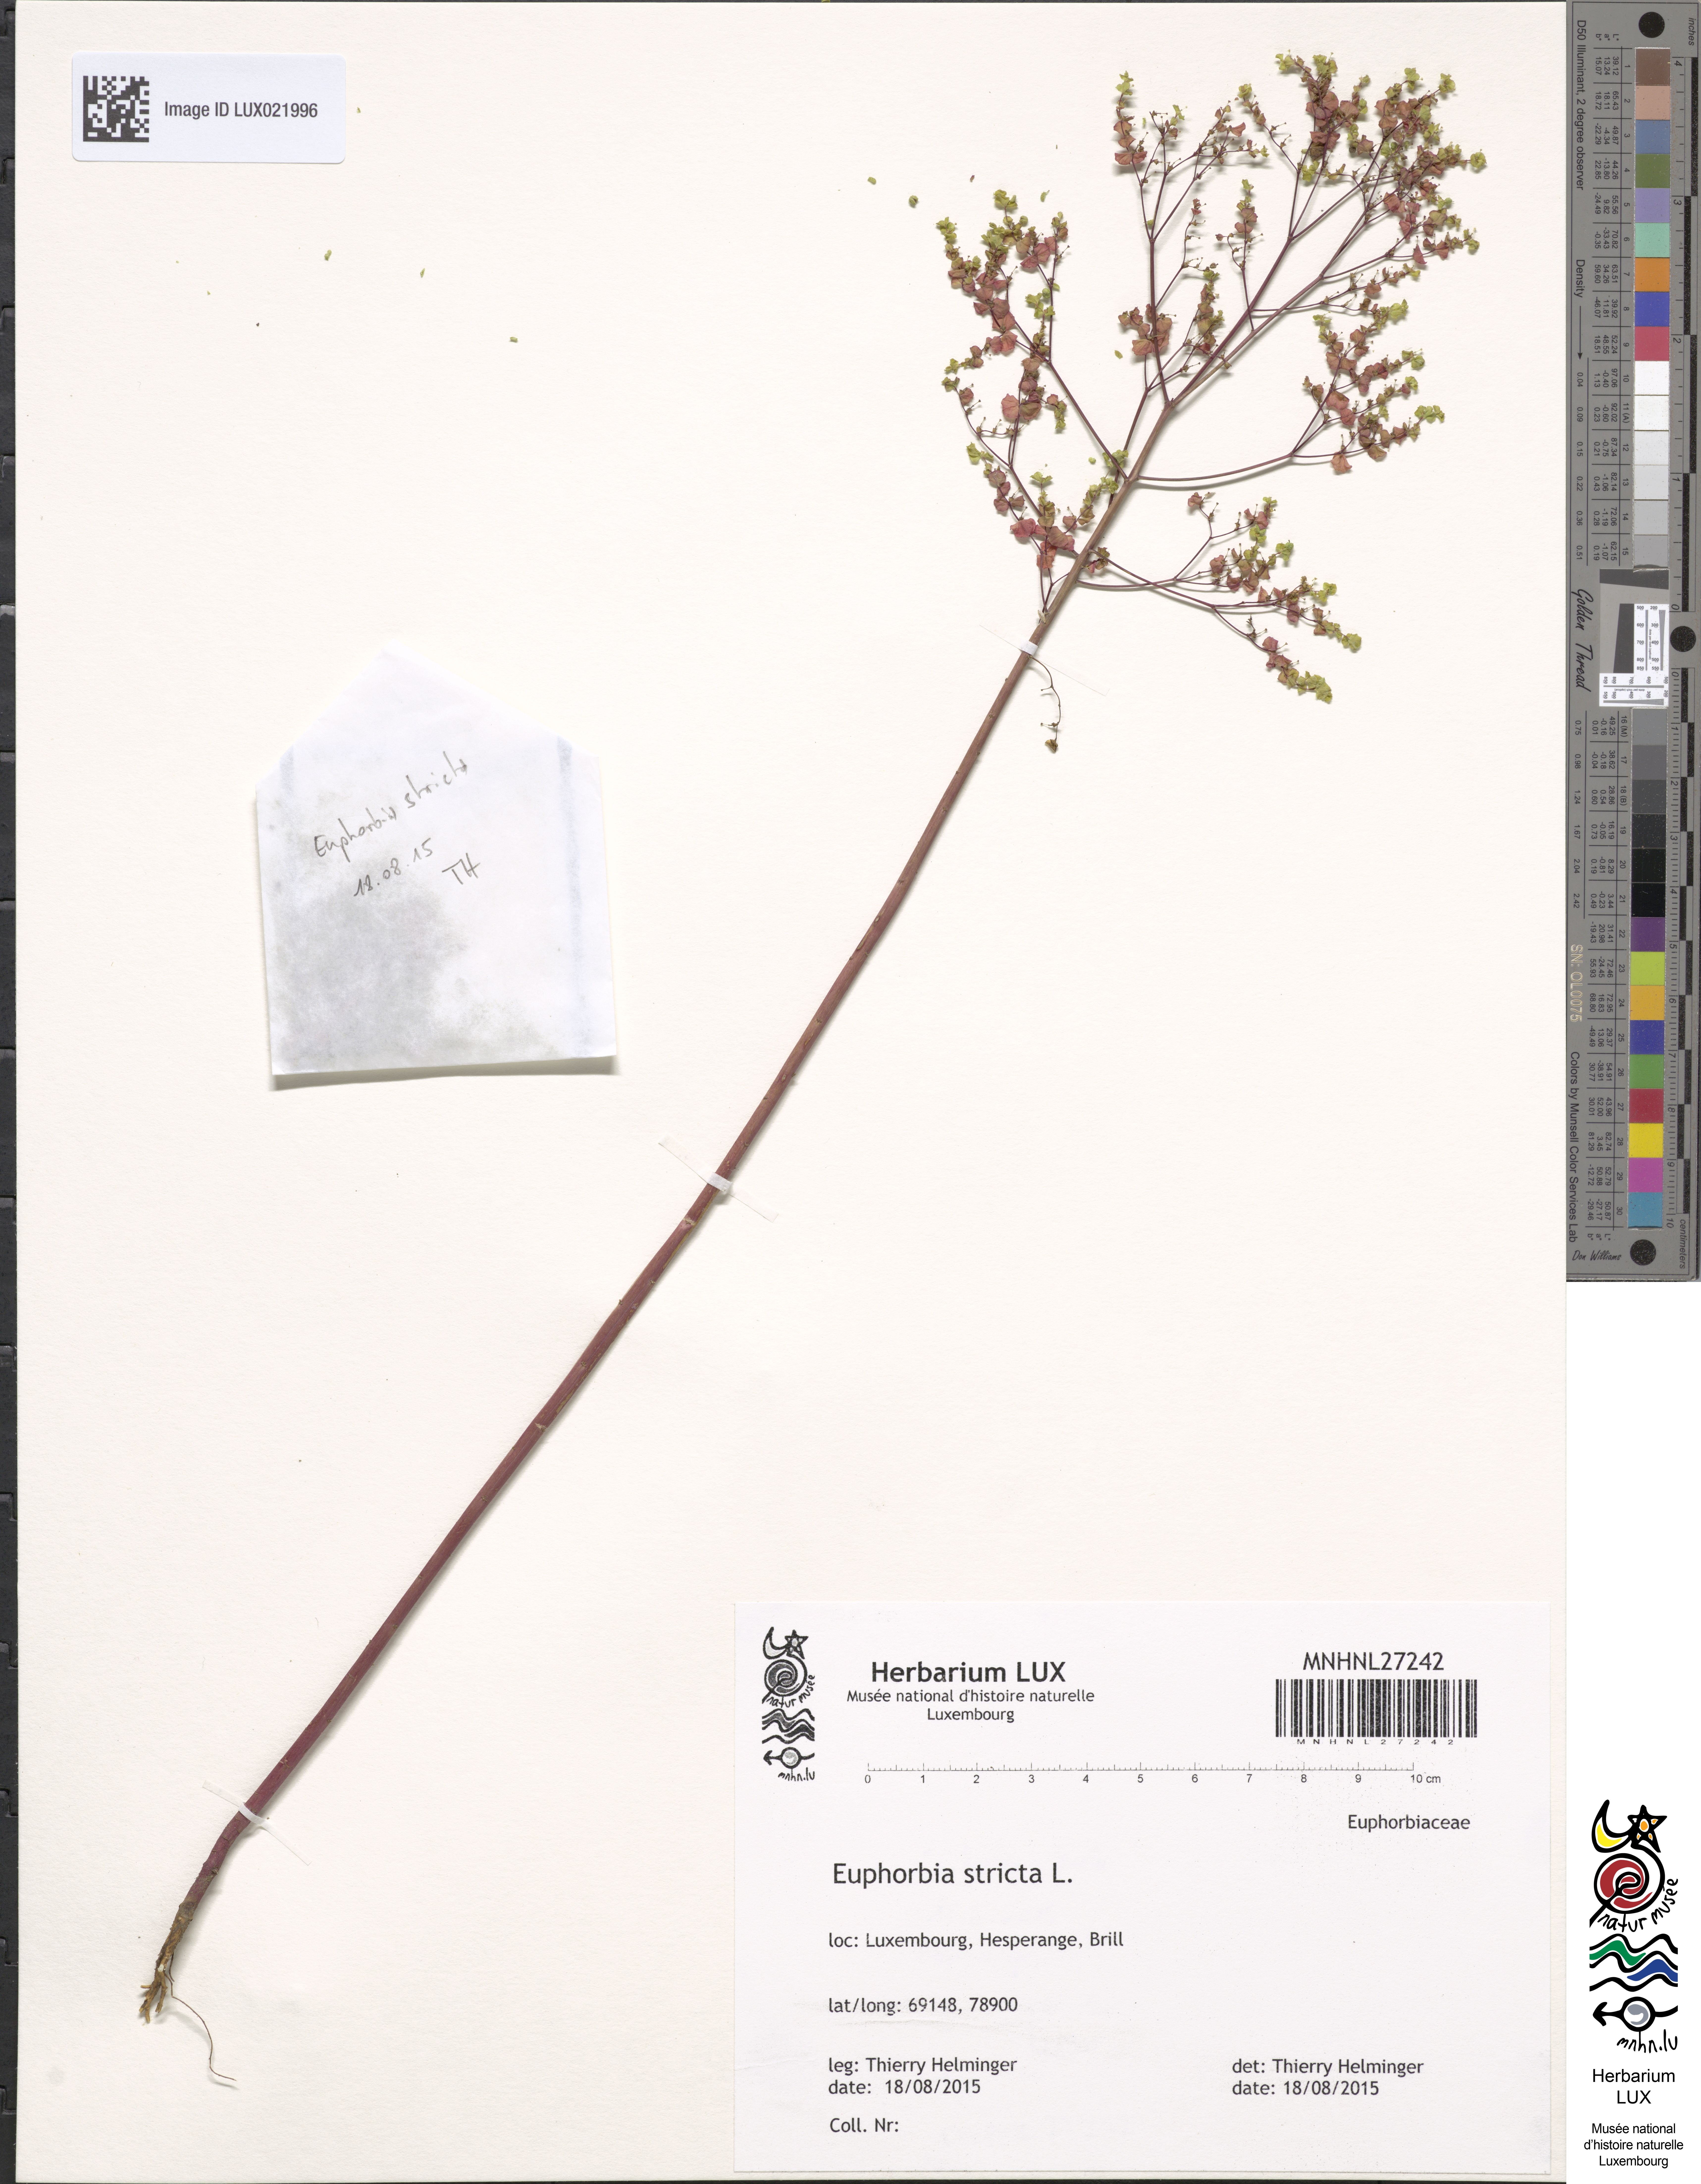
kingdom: Plantae
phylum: Tracheophyta
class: Magnoliopsida
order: Malpighiales
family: Euphorbiaceae
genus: Euphorbia
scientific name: Euphorbia stricta
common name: Upright spurge
